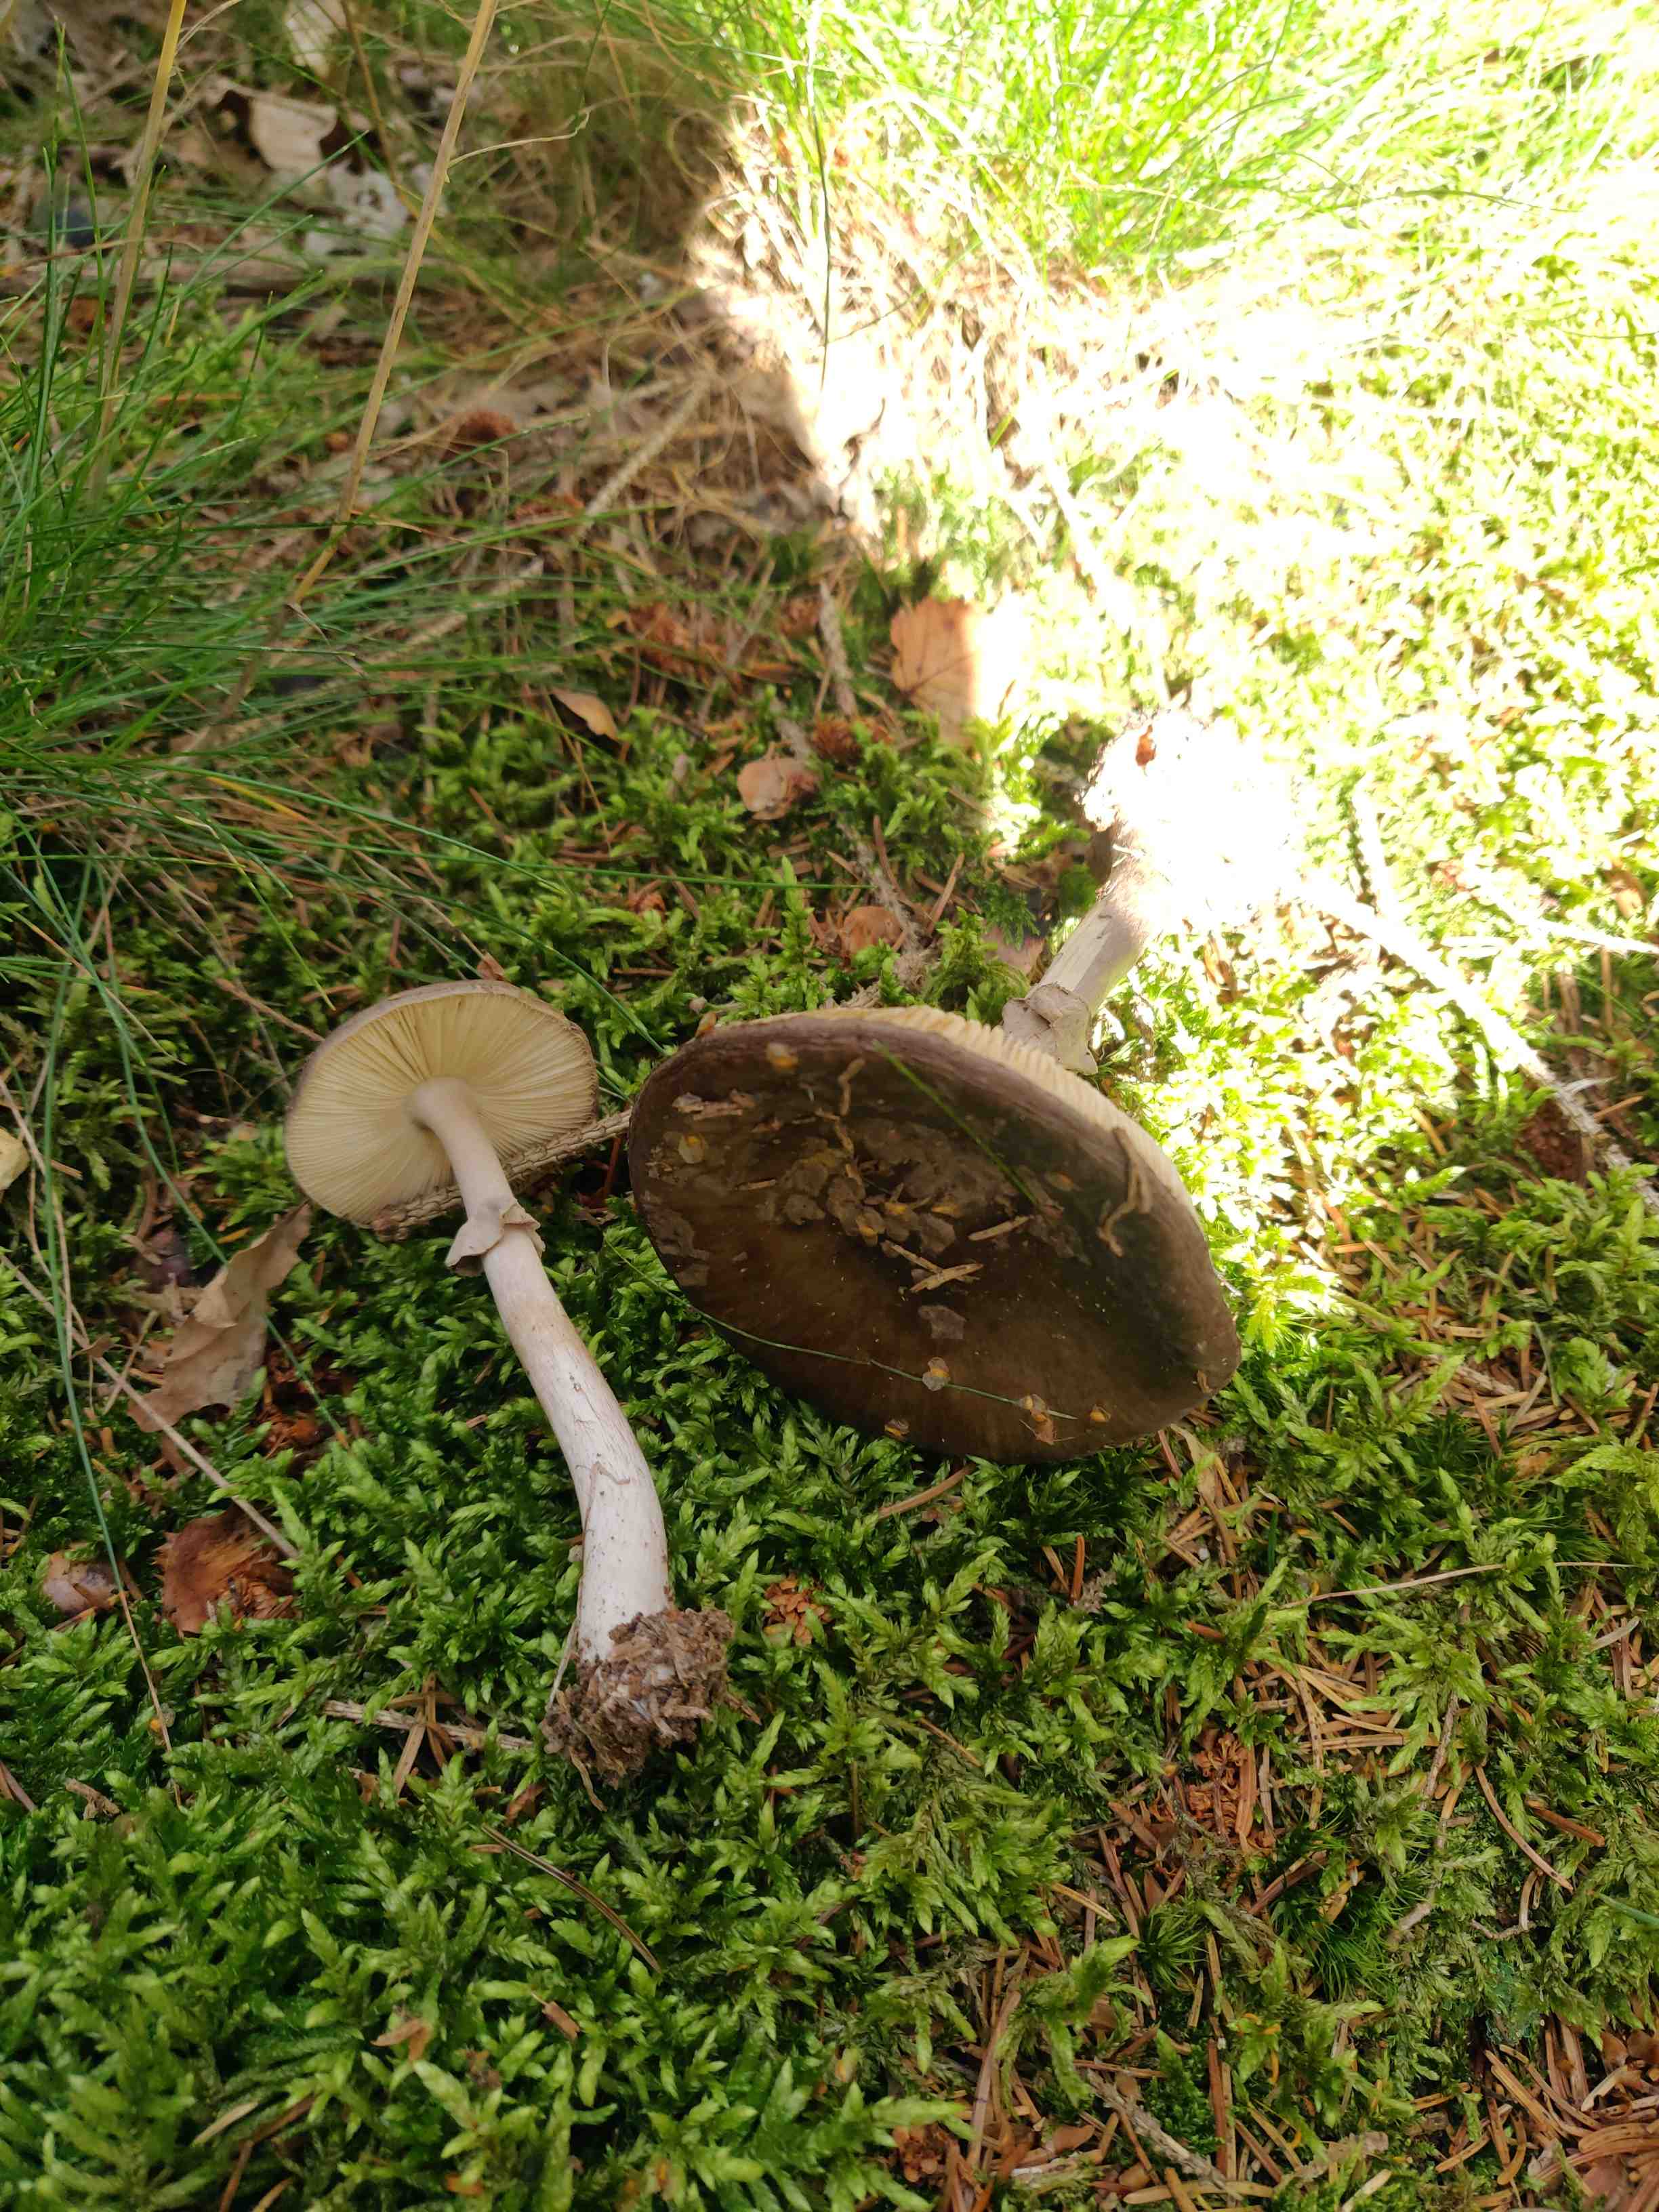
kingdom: Fungi
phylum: Basidiomycota
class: Agaricomycetes
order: Agaricales
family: Amanitaceae
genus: Amanita
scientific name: Amanita porphyria
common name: porfyr-fluesvamp
